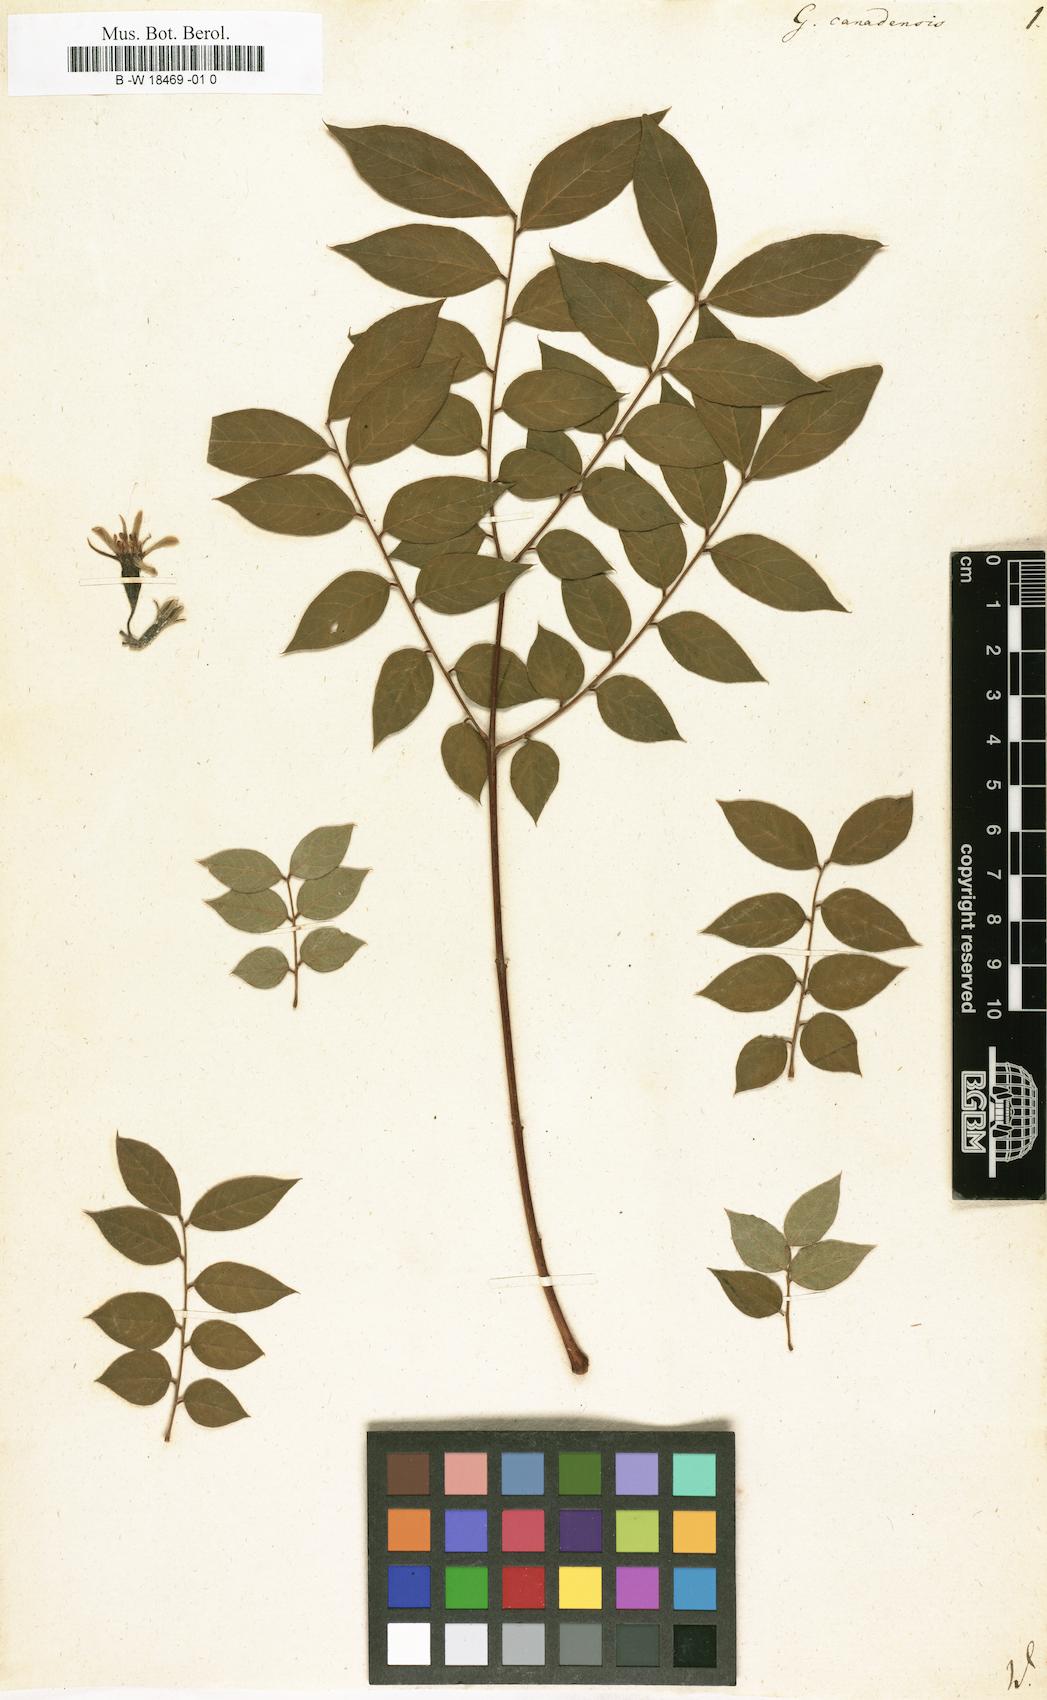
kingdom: Plantae
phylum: Tracheophyta
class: Magnoliopsida
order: Fabales
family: Fabaceae
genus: Gymnocladus
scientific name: Gymnocladus dioicus
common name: Kentucky coffee-tree
